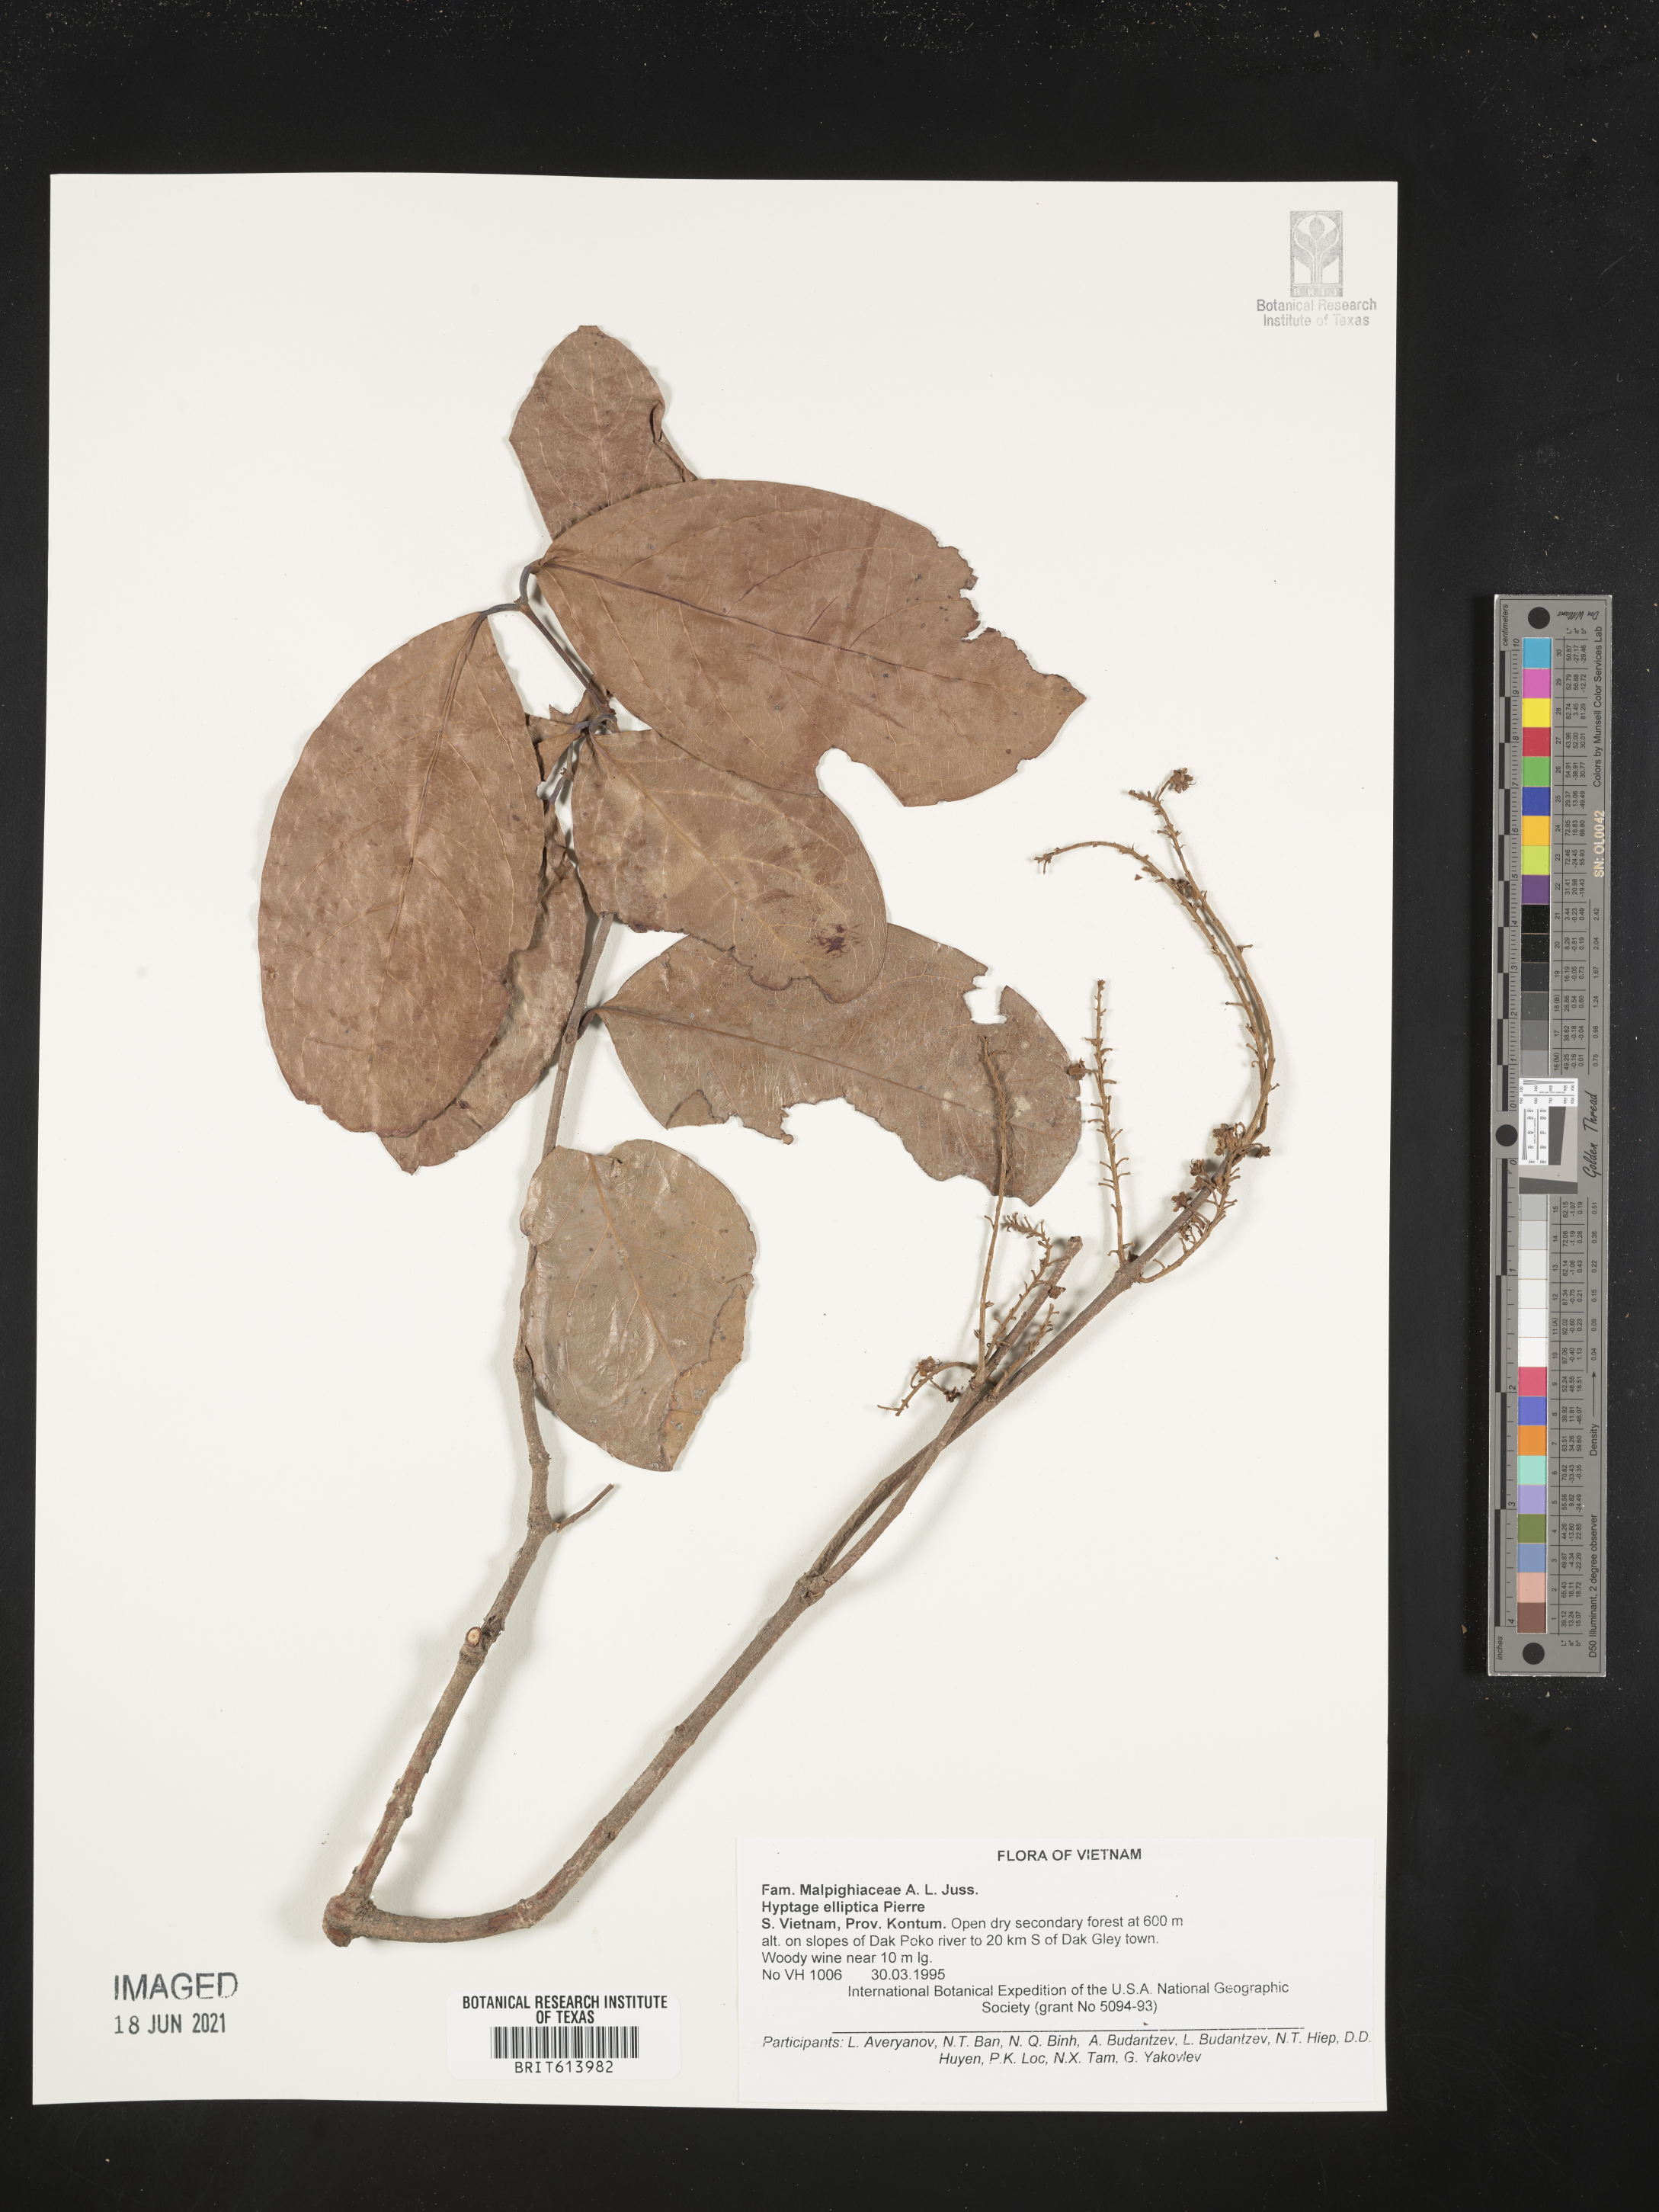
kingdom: Plantae
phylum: Tracheophyta
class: Magnoliopsida
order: Malpighiales
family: Malpighiaceae
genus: Hiptage
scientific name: Hiptage elliptica
